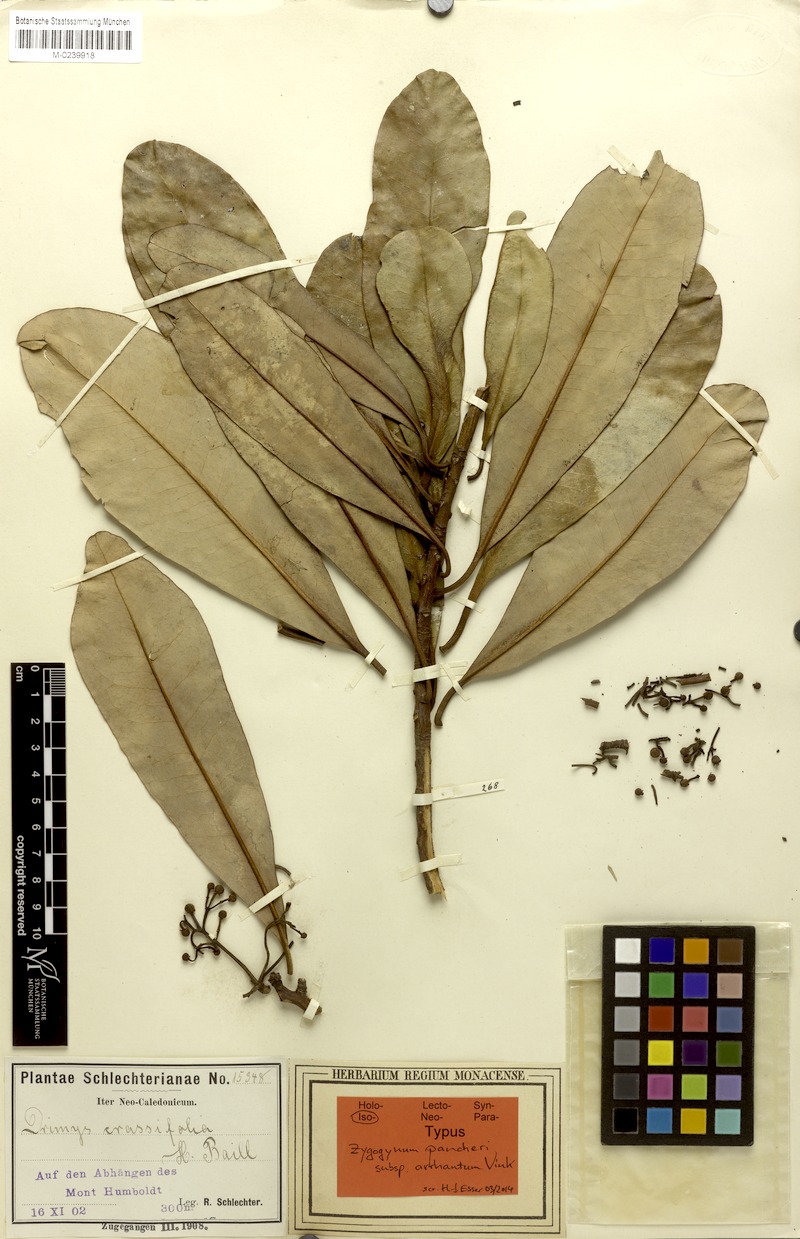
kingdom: Plantae
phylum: Tracheophyta
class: Magnoliopsida
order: Canellales
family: Winteraceae
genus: Zygogynum
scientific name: Zygogynum pancheri
